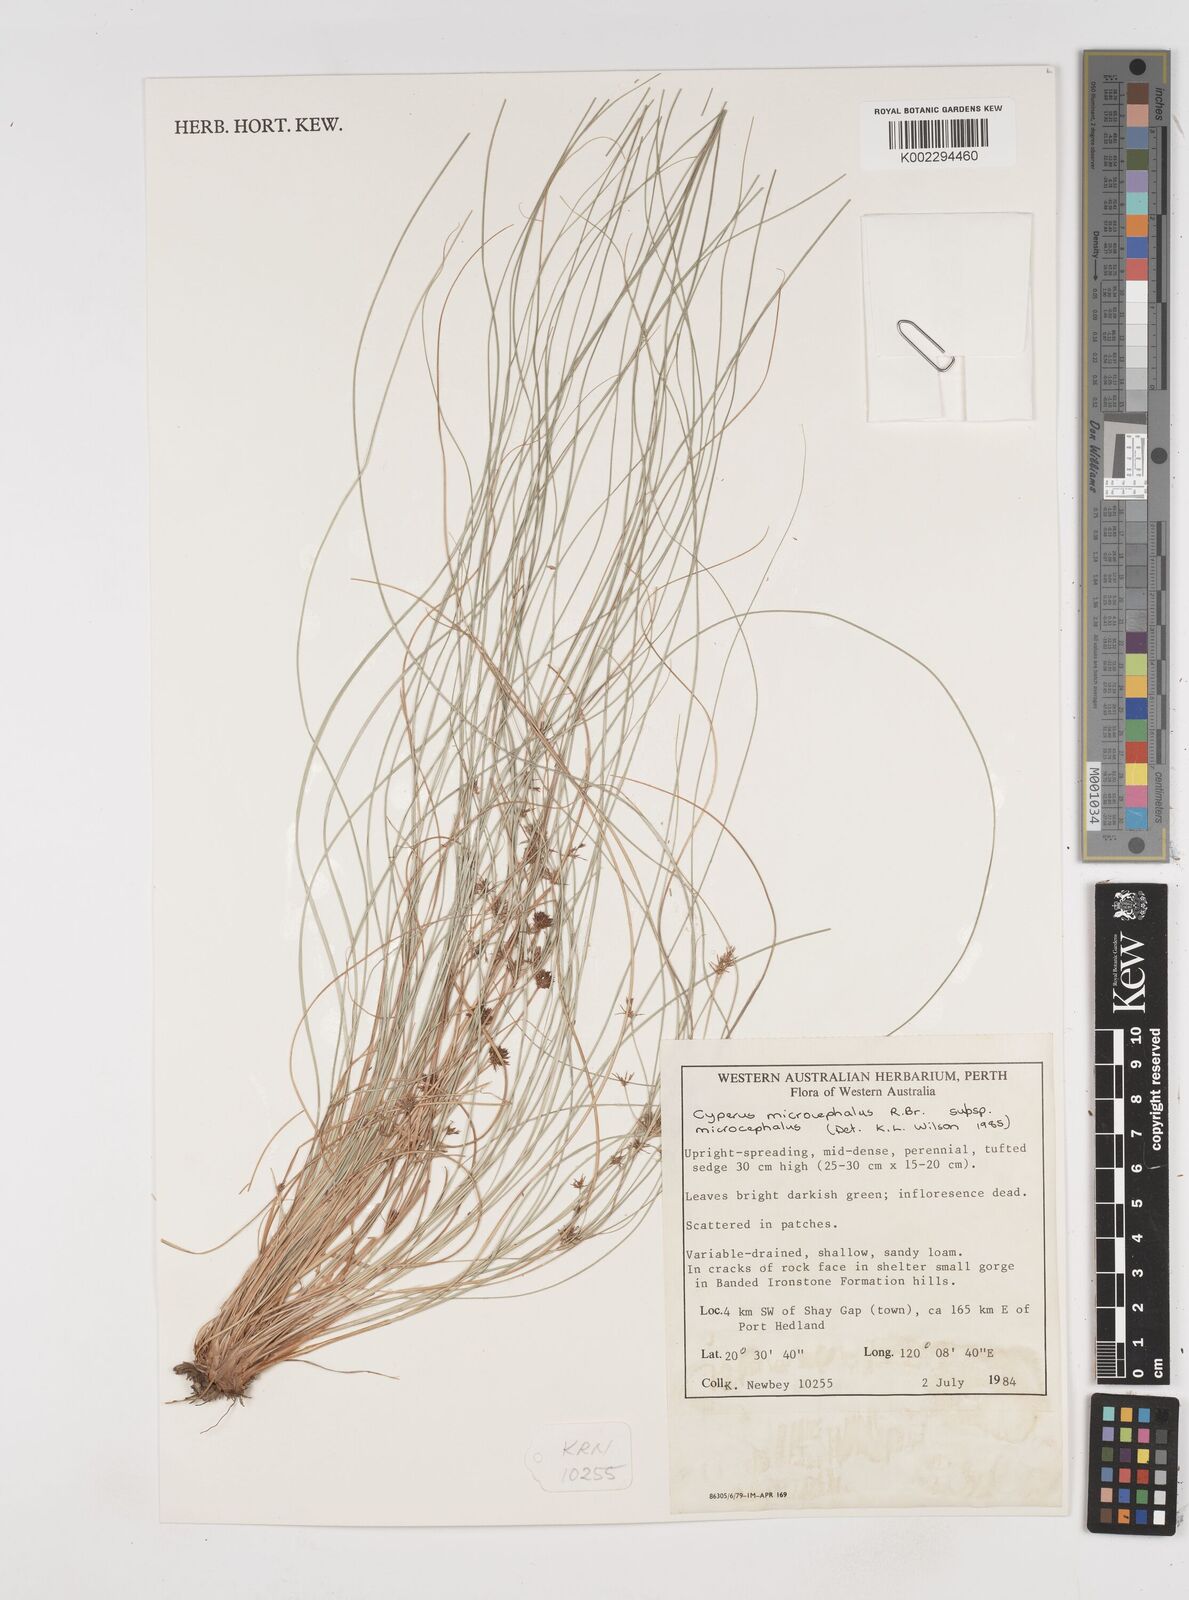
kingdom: Plantae
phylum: Tracheophyta
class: Liliopsida
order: Poales
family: Cyperaceae
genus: Cyperus
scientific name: Cyperus microcephalus
